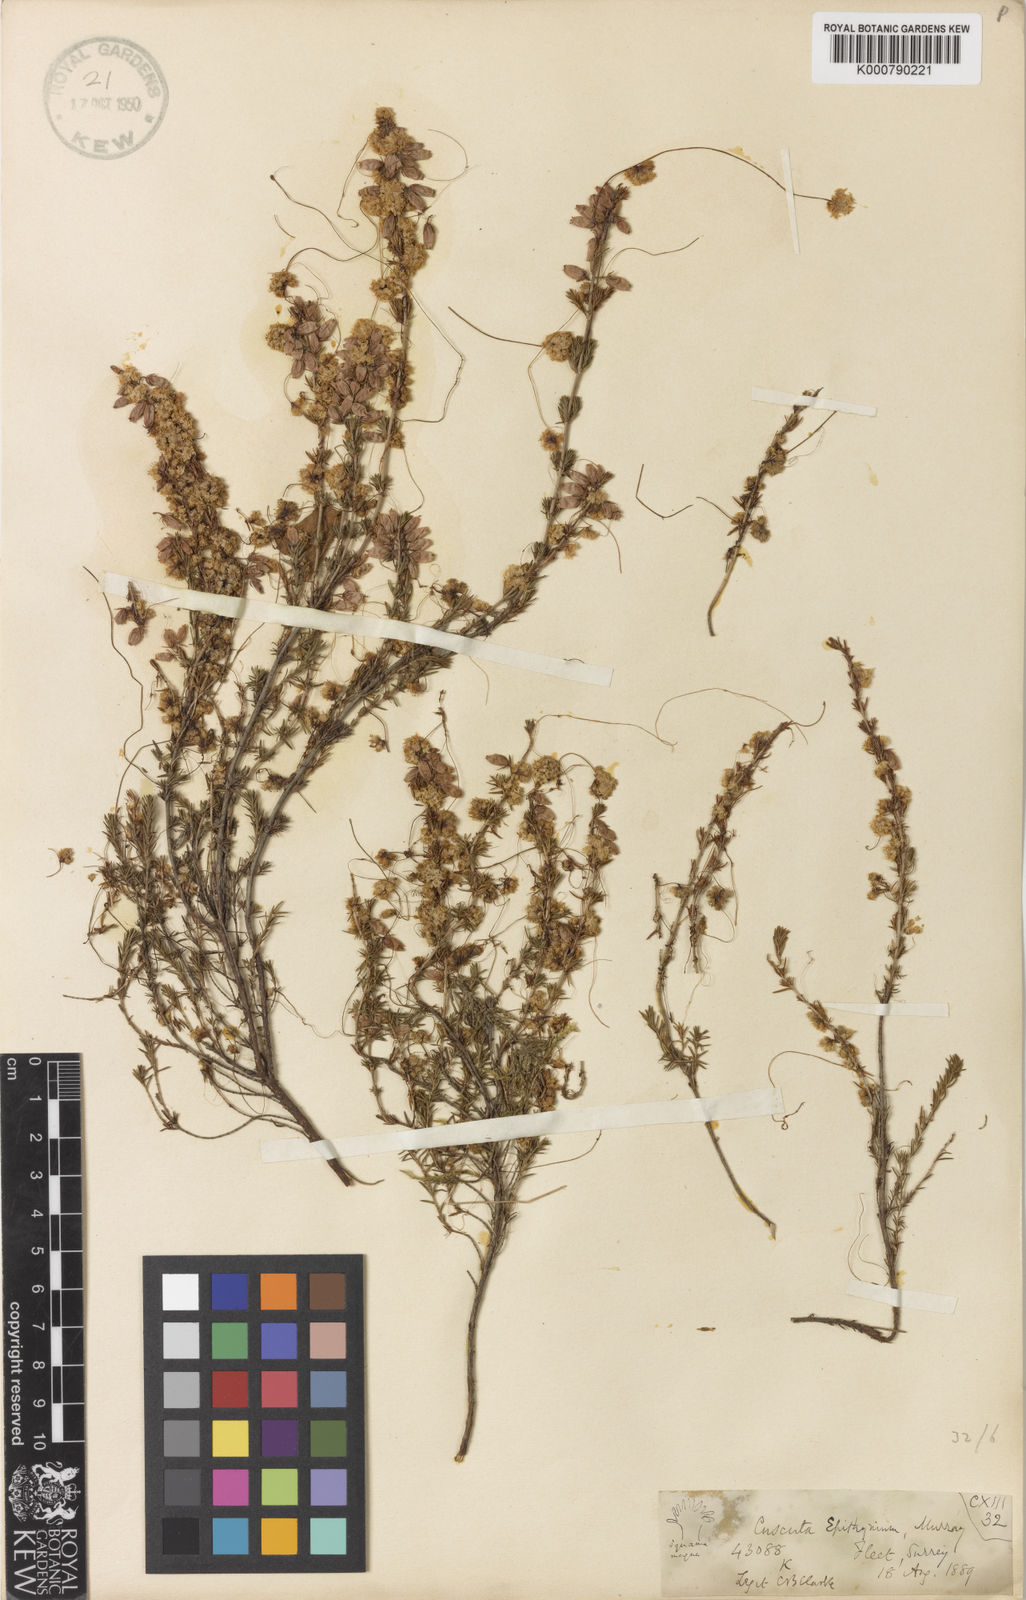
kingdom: Plantae
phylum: Tracheophyta
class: Magnoliopsida
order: Solanales
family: Convolvulaceae
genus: Cuscuta
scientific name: Cuscuta epithymum
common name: Clover dodder
